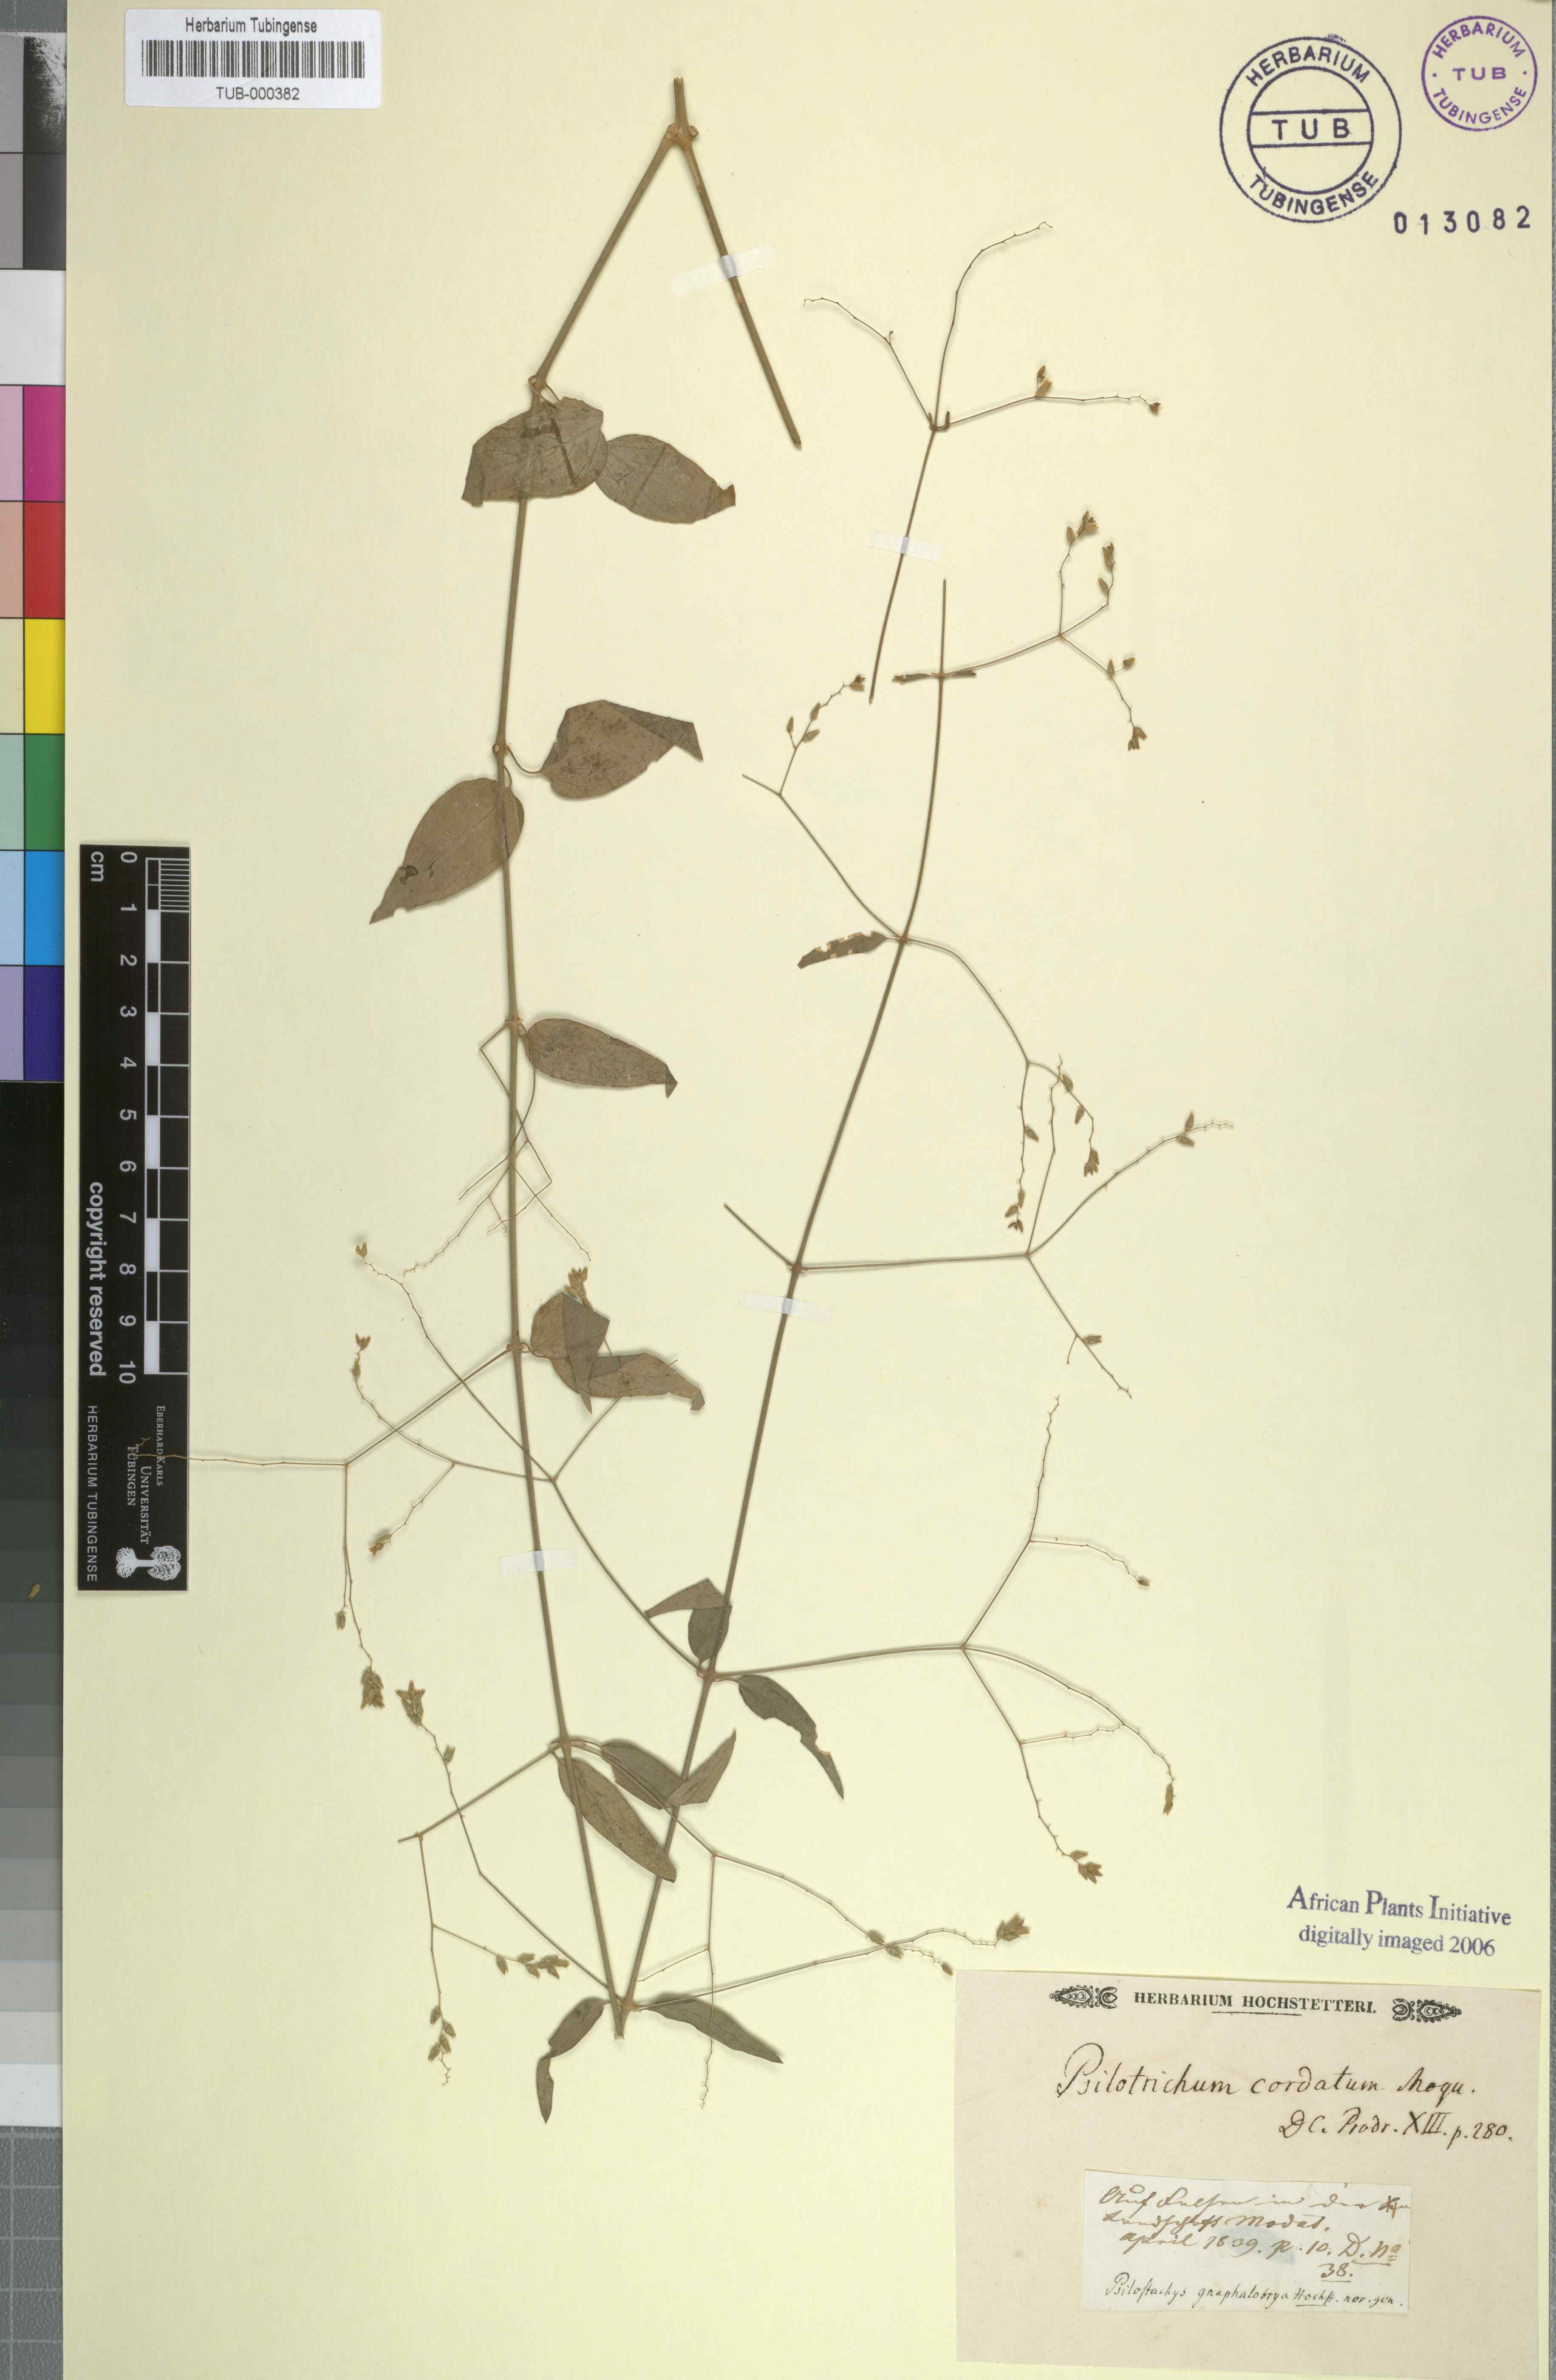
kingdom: Plantae
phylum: Tracheophyta
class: Magnoliopsida
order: Caryophyllales
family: Amaranthaceae
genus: Psilotrichum
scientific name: Psilotrichum gnaphalobryum
